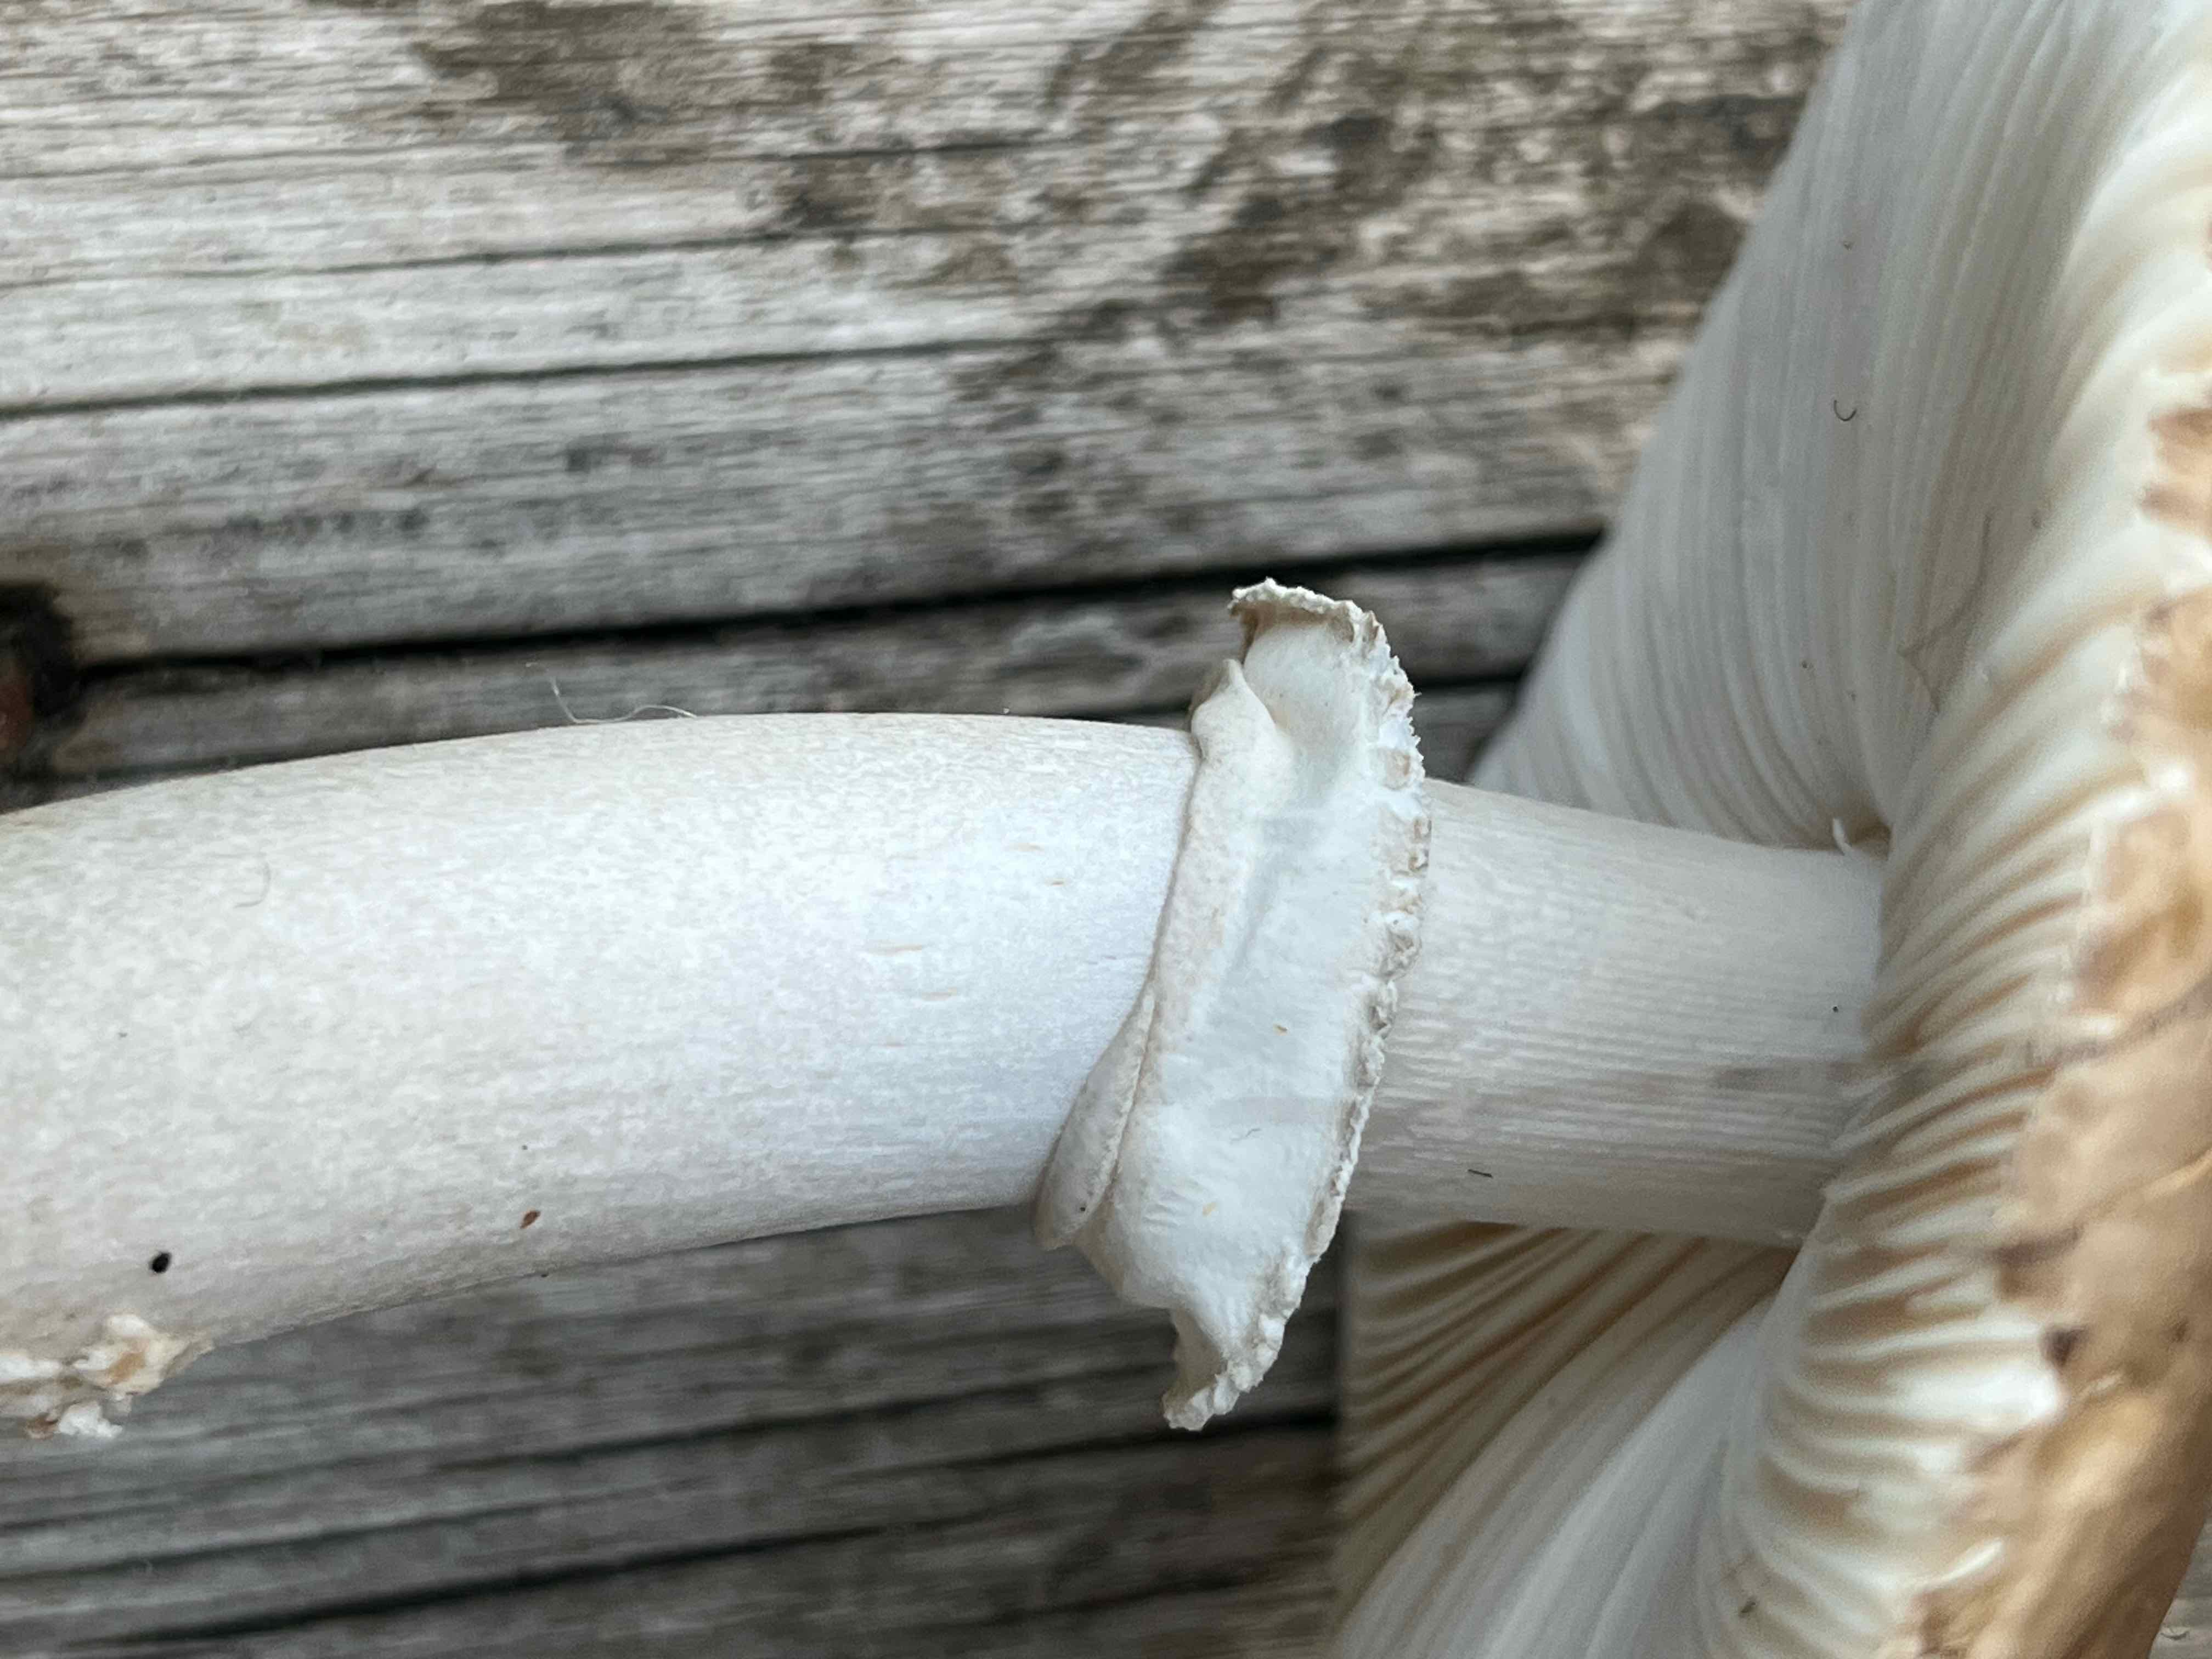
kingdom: Fungi
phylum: Basidiomycota
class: Agaricomycetes
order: Agaricales
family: Amanitaceae
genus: Amanita
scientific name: Amanita porphyria
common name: porfyr-fluesvamp
